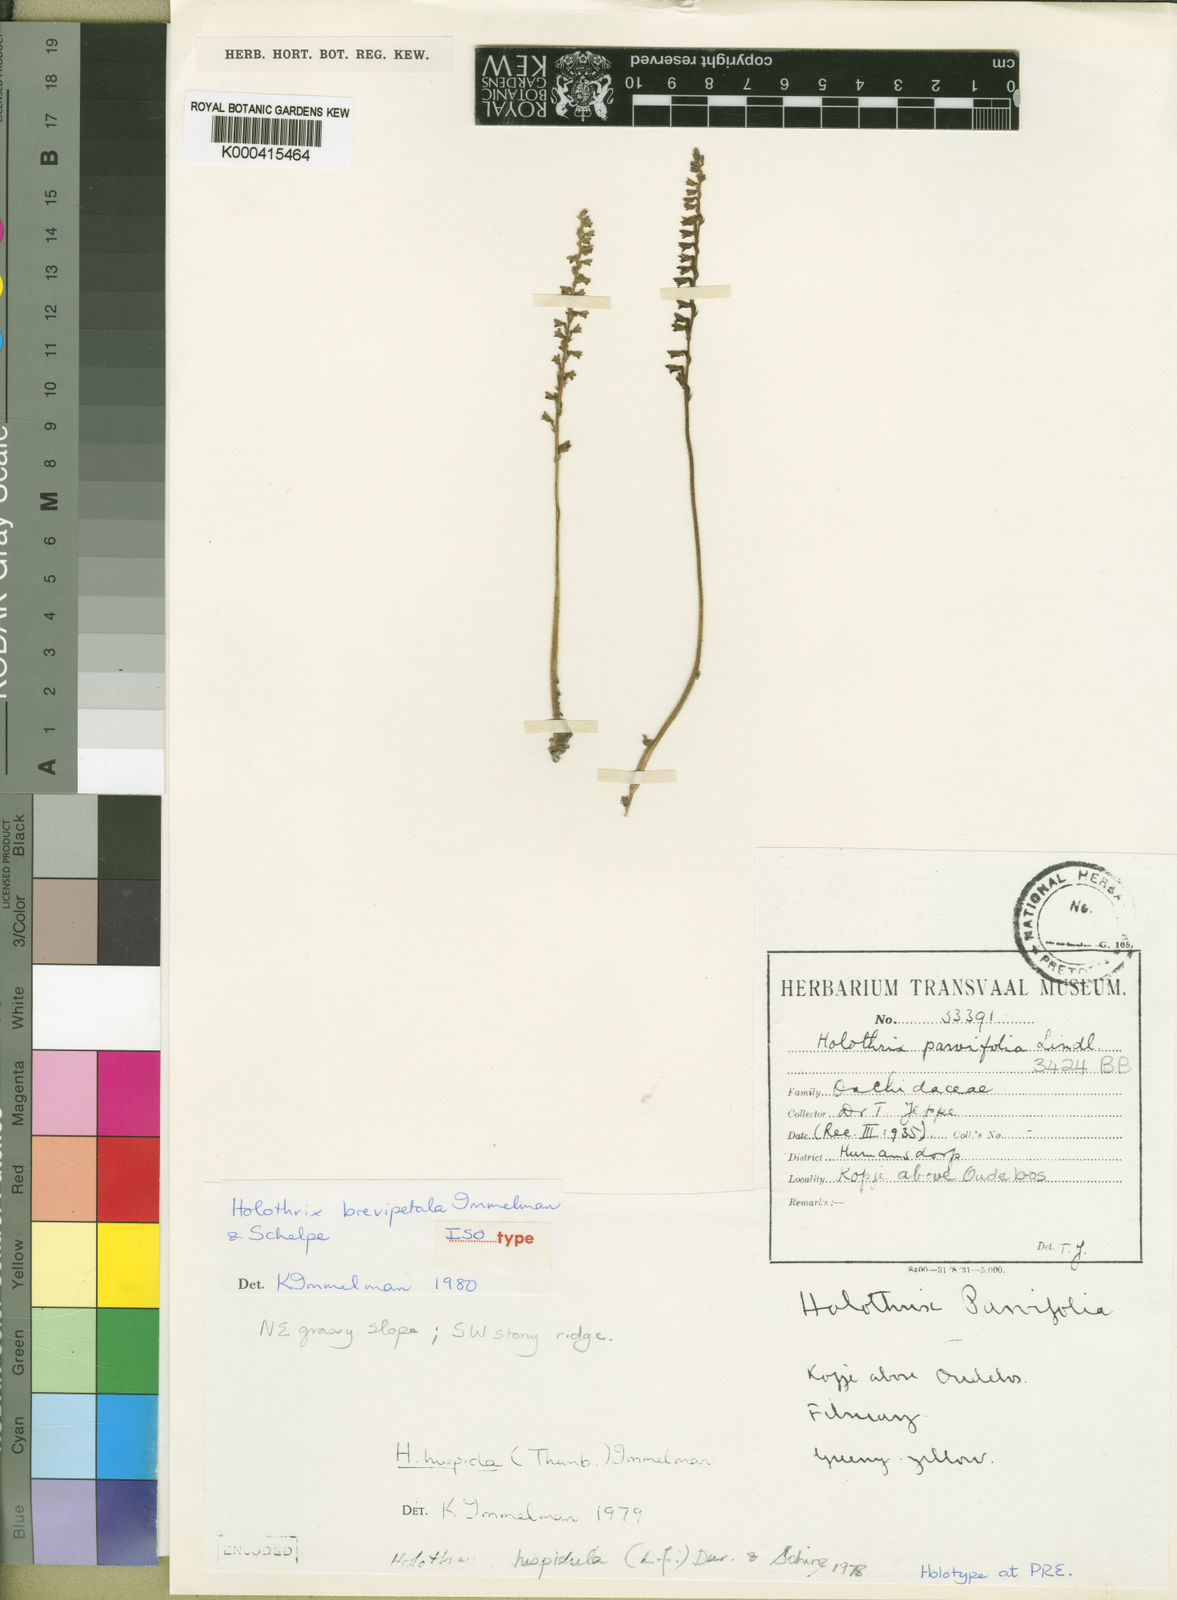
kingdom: Plantae
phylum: Tracheophyta
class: Liliopsida
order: Asparagales
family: Orchidaceae
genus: Holothrix
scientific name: Holothrix brevipetala
